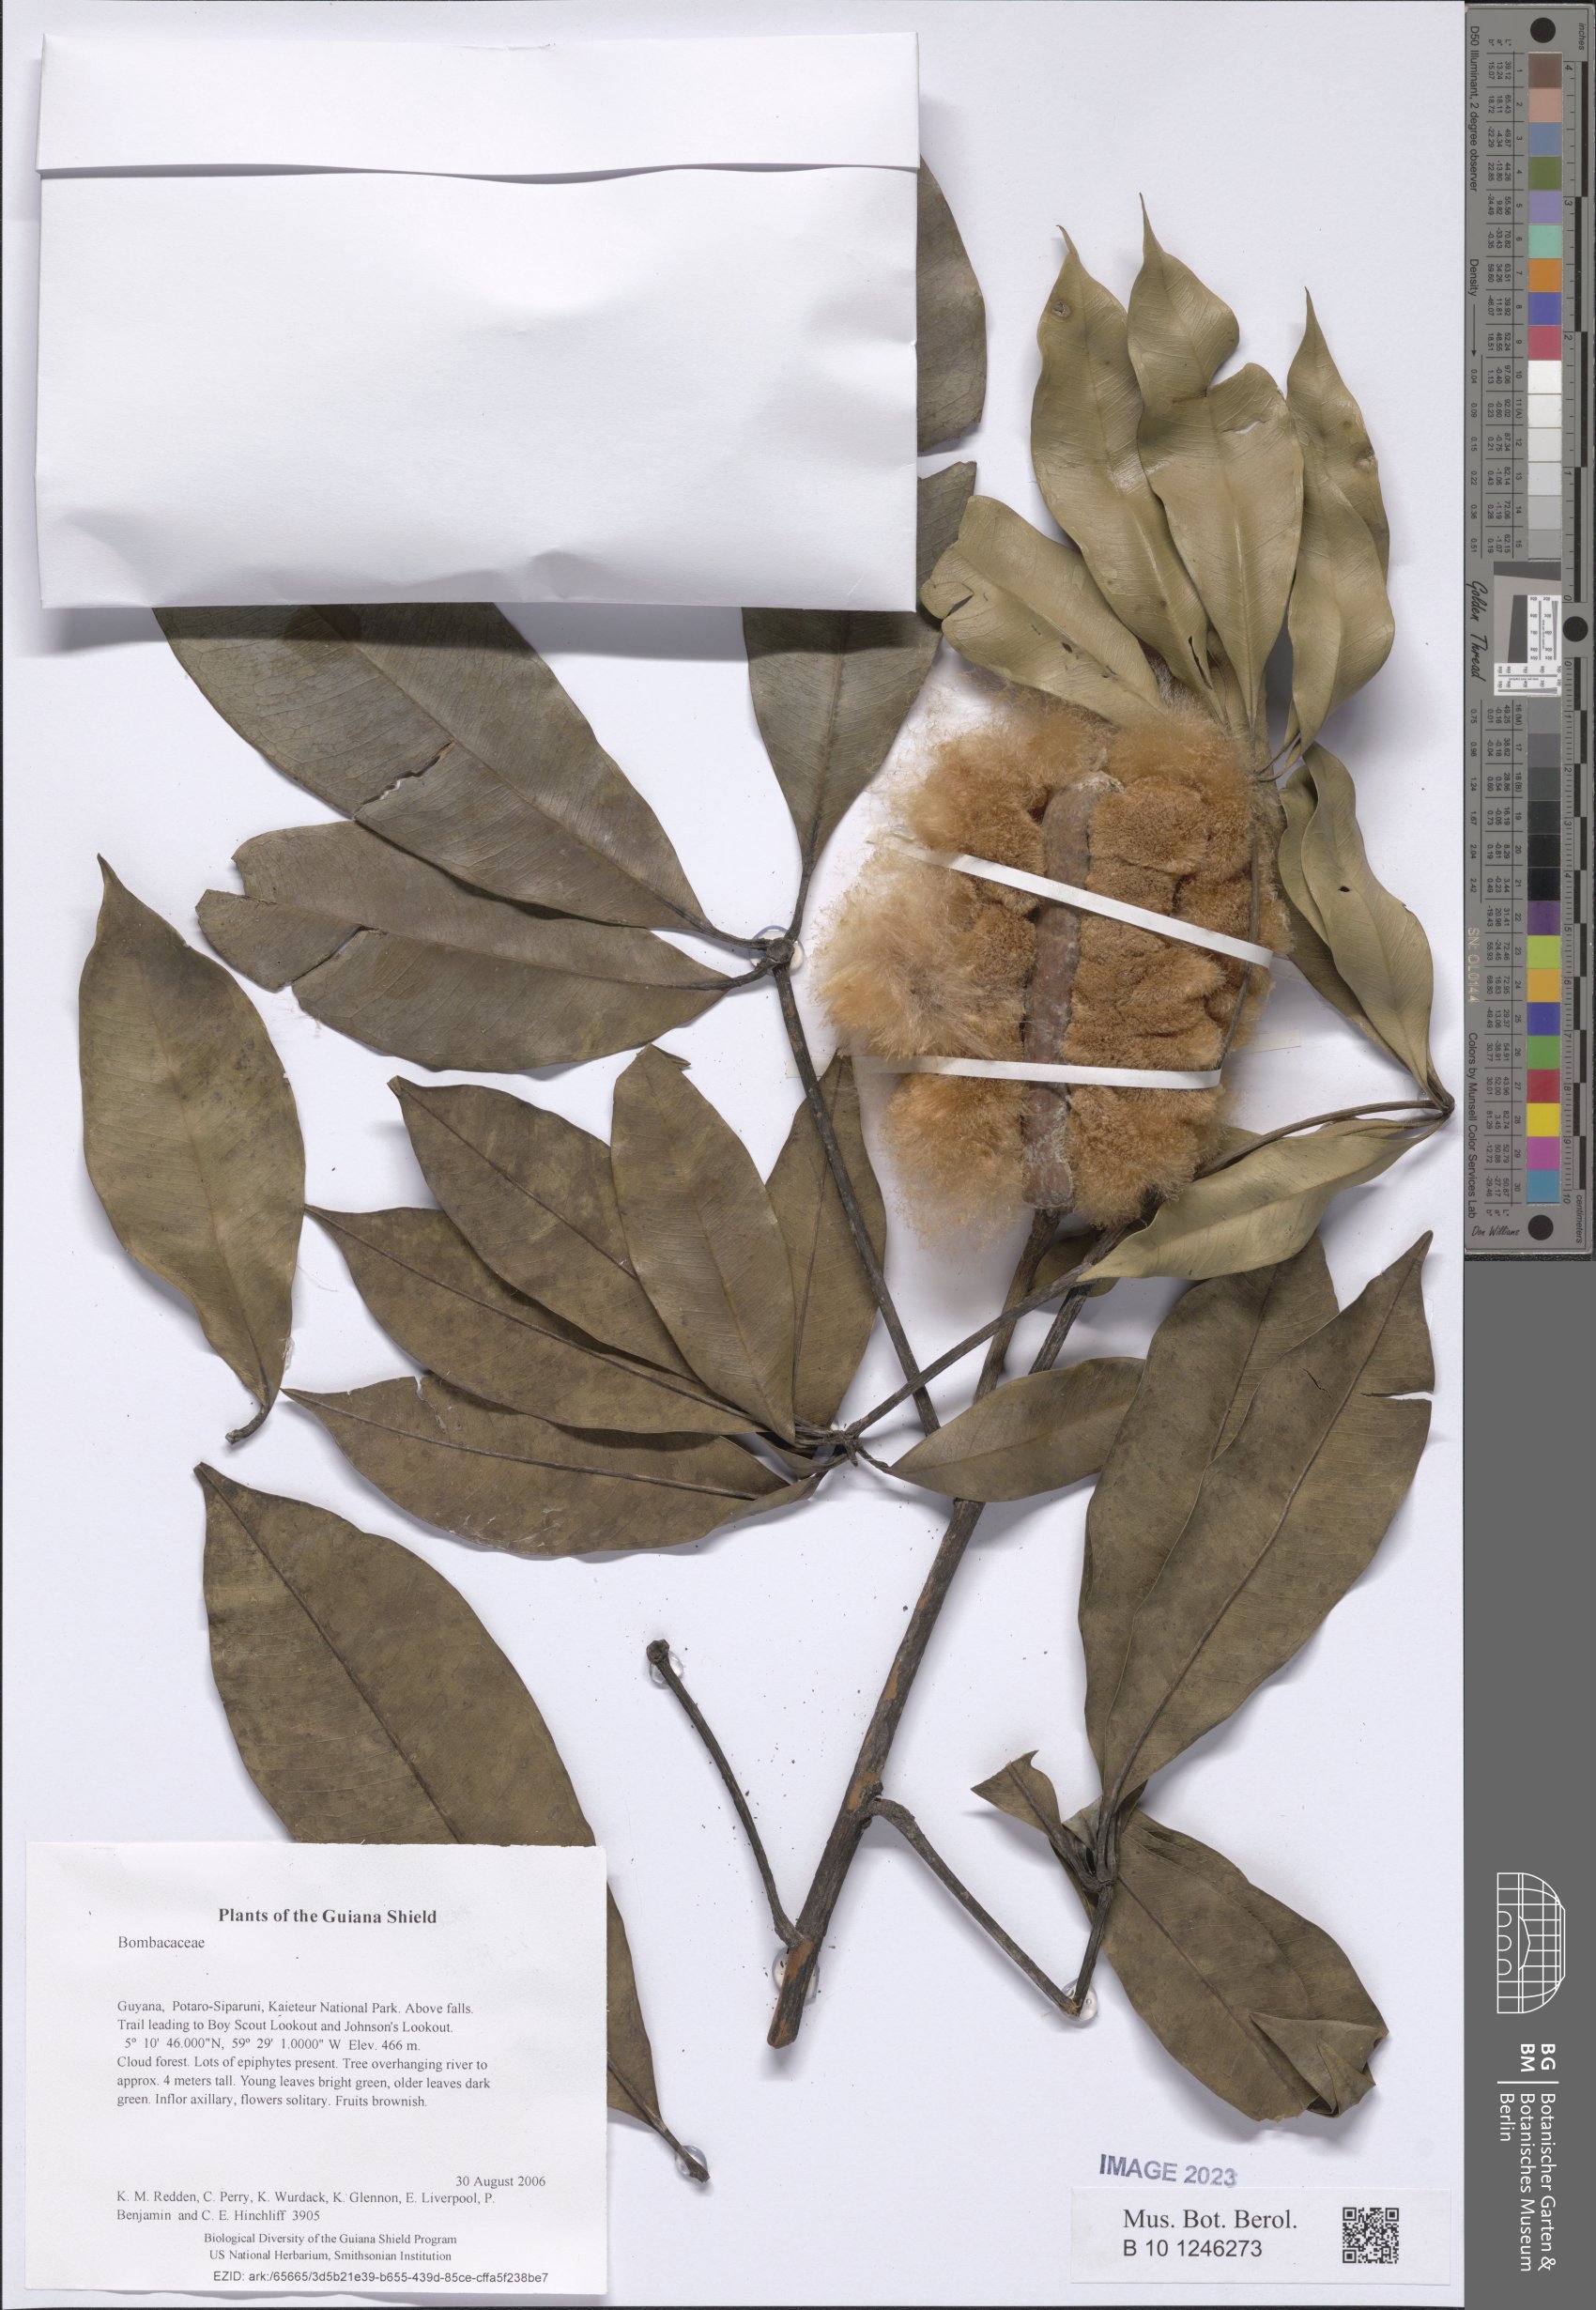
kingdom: Plantae
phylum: Tracheophyta
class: Magnoliopsida
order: Malvales
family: Malvaceae
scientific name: Malvaceae
